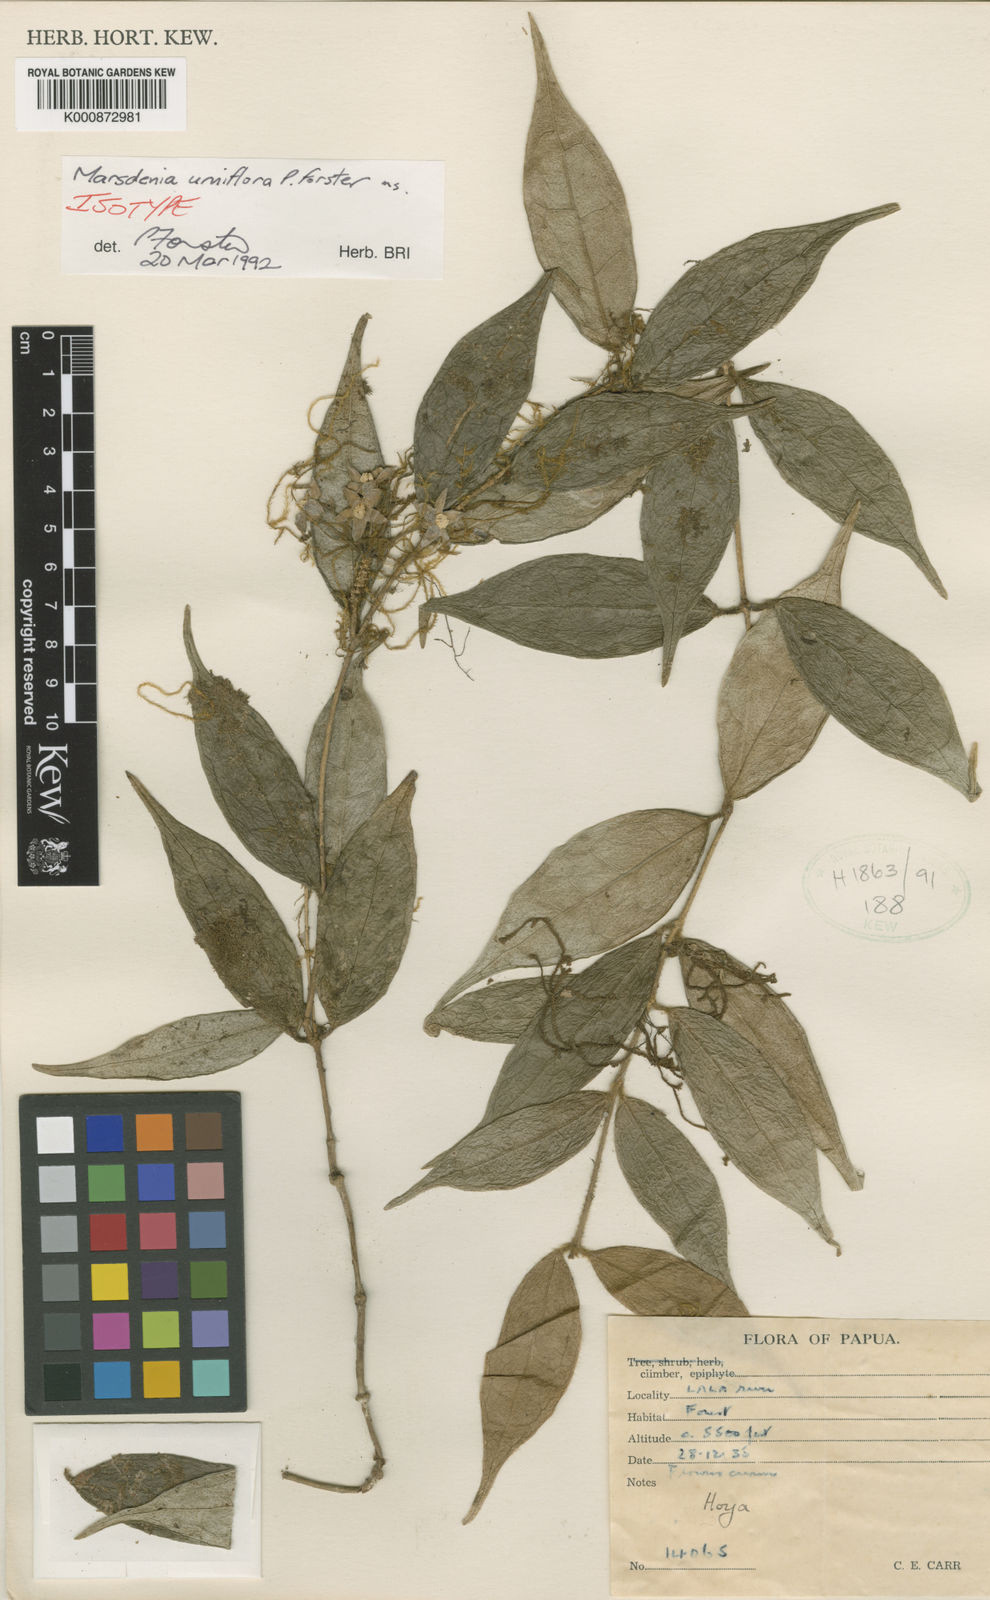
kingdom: Plantae
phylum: Tracheophyta
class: Magnoliopsida
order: Gentianales
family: Apocynaceae
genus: Papuahoya
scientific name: Papuahoya urniflora
